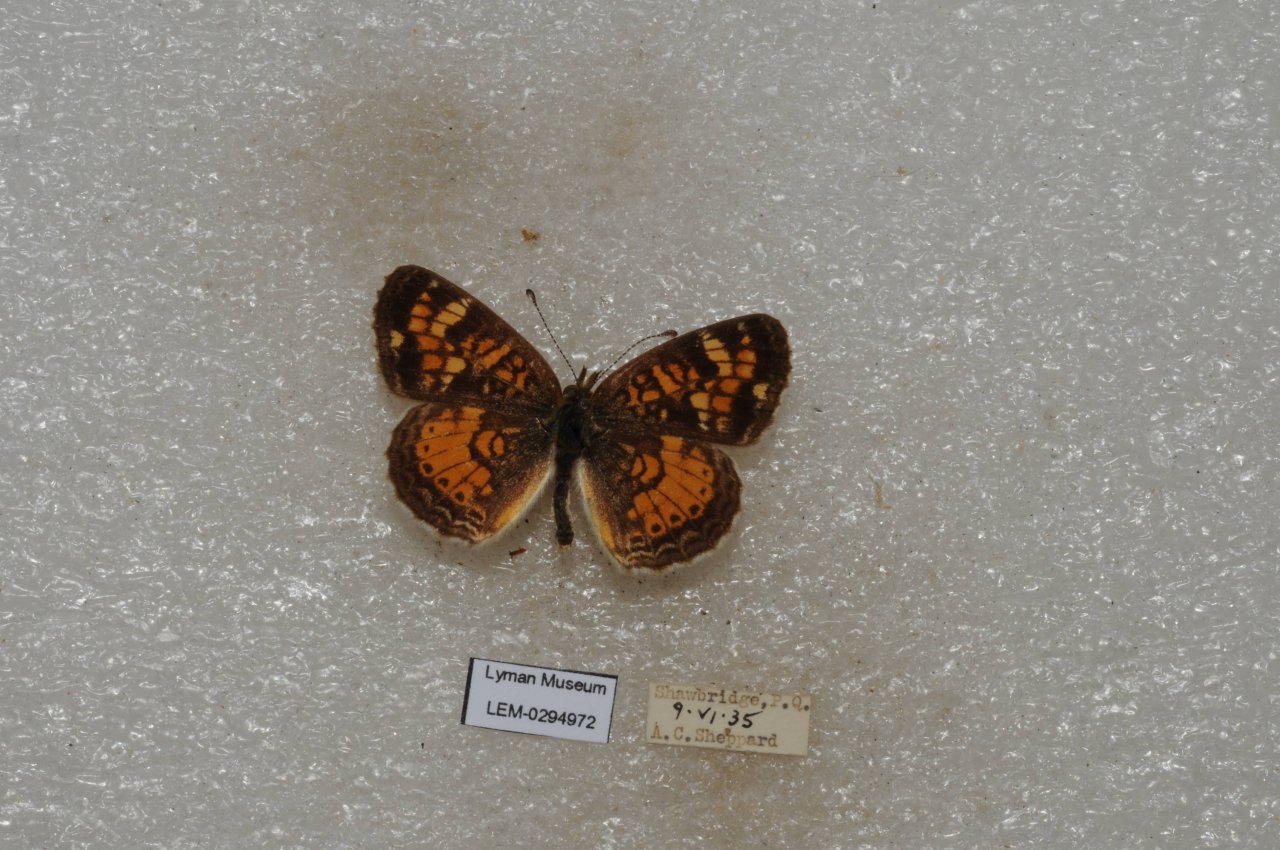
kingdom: Animalia
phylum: Arthropoda
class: Insecta
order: Lepidoptera
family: Nymphalidae
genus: Phyciodes
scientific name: Phyciodes tharos
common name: Northern Crescent
